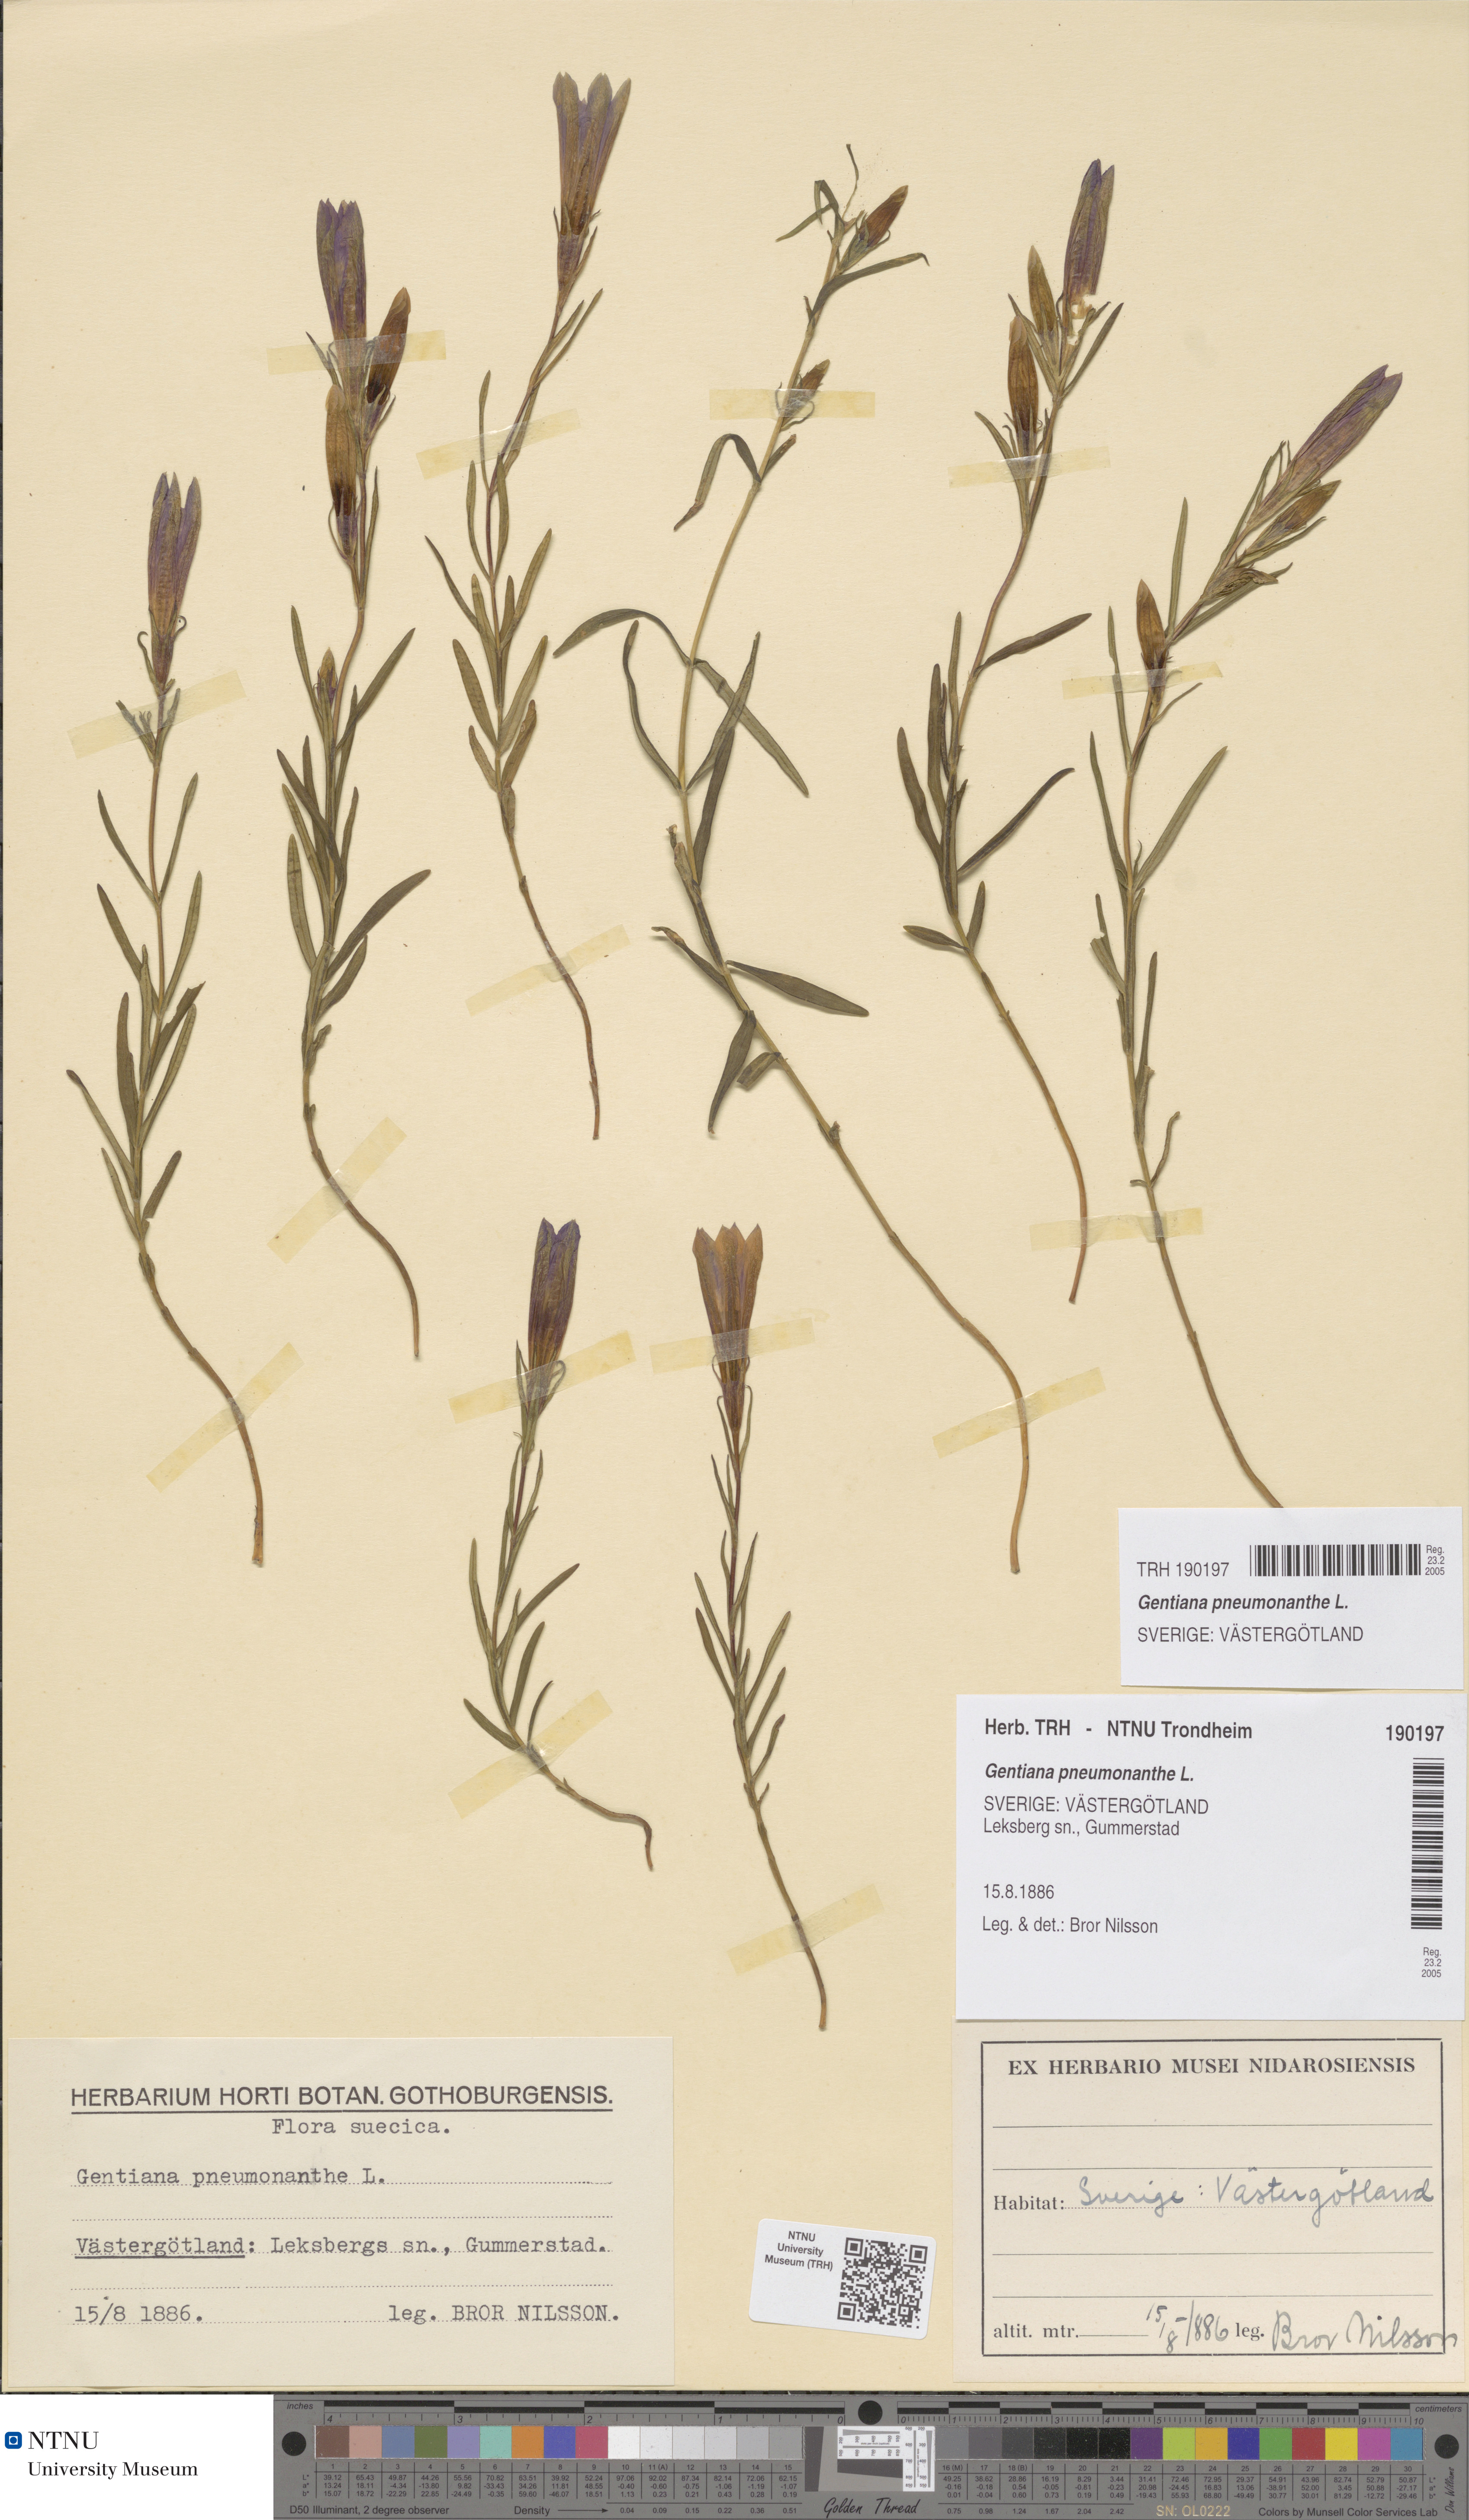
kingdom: Plantae
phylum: Tracheophyta
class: Magnoliopsida
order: Gentianales
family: Gentianaceae
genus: Gentiana
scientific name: Gentiana pneumonanthe
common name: Marsh gentian
